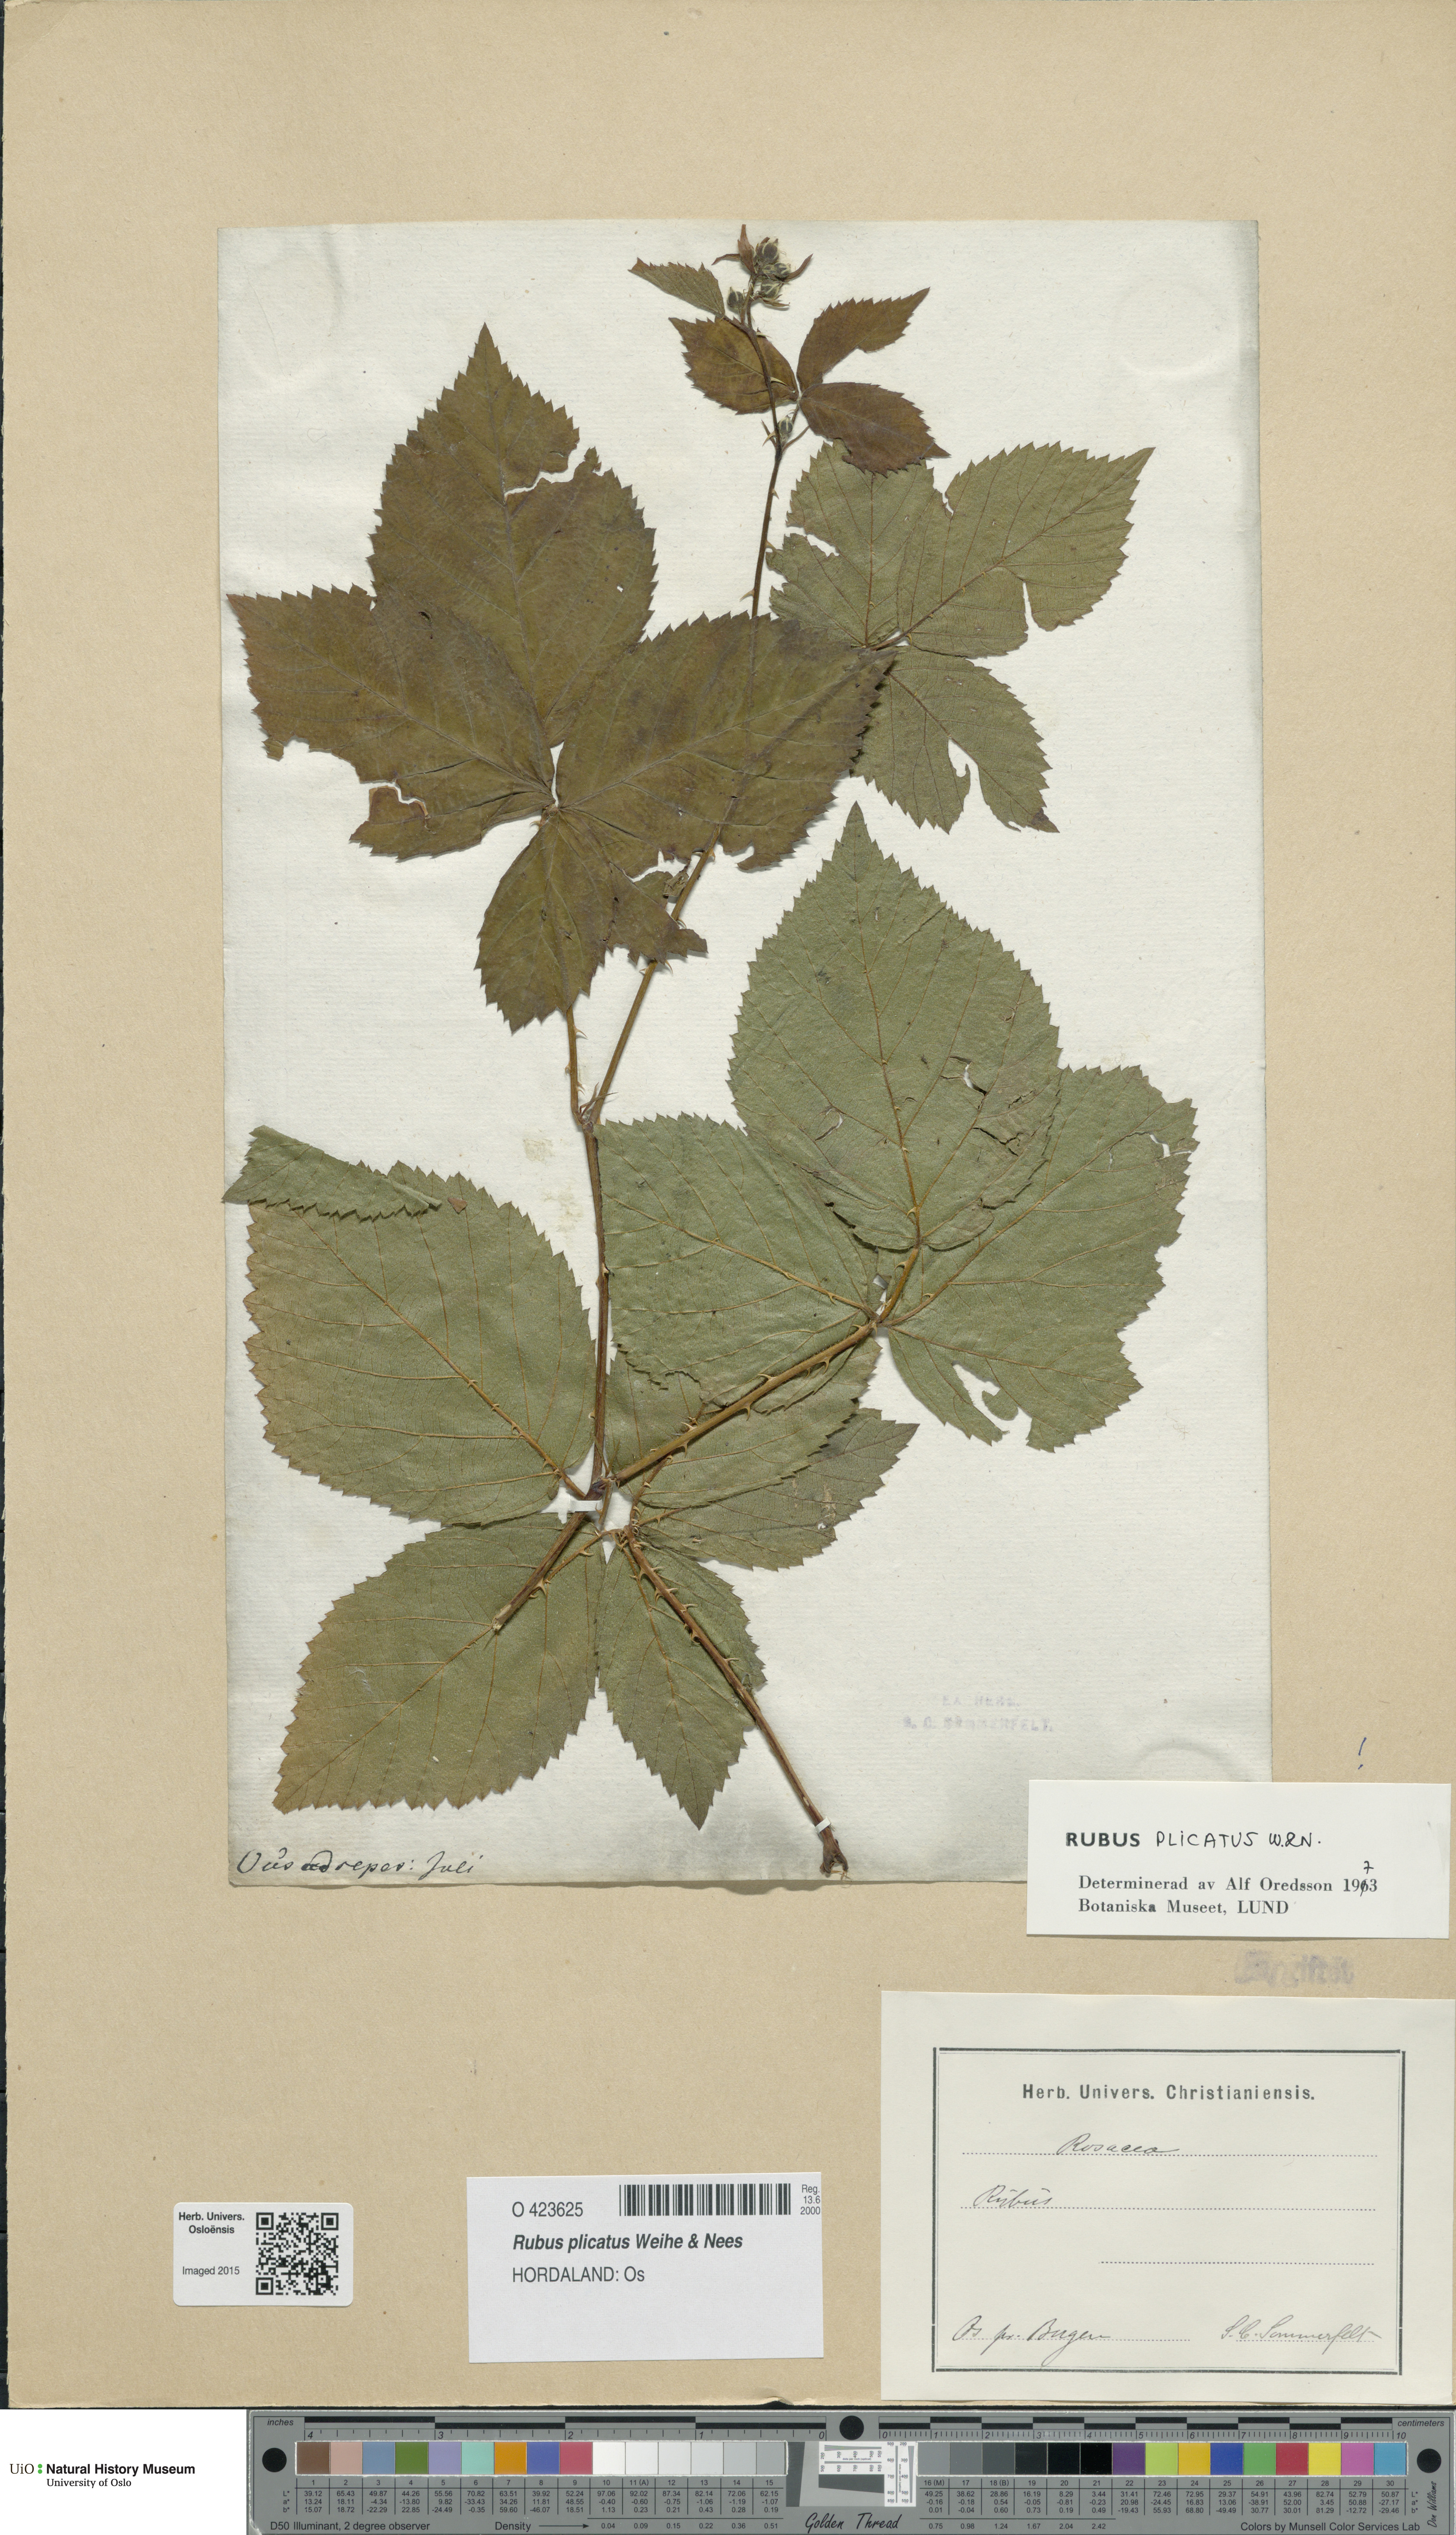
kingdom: Plantae
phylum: Tracheophyta
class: Magnoliopsida
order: Rosales
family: Rosaceae
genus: Rubus
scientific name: Rubus fruticosus
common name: Blackberry, bramble
